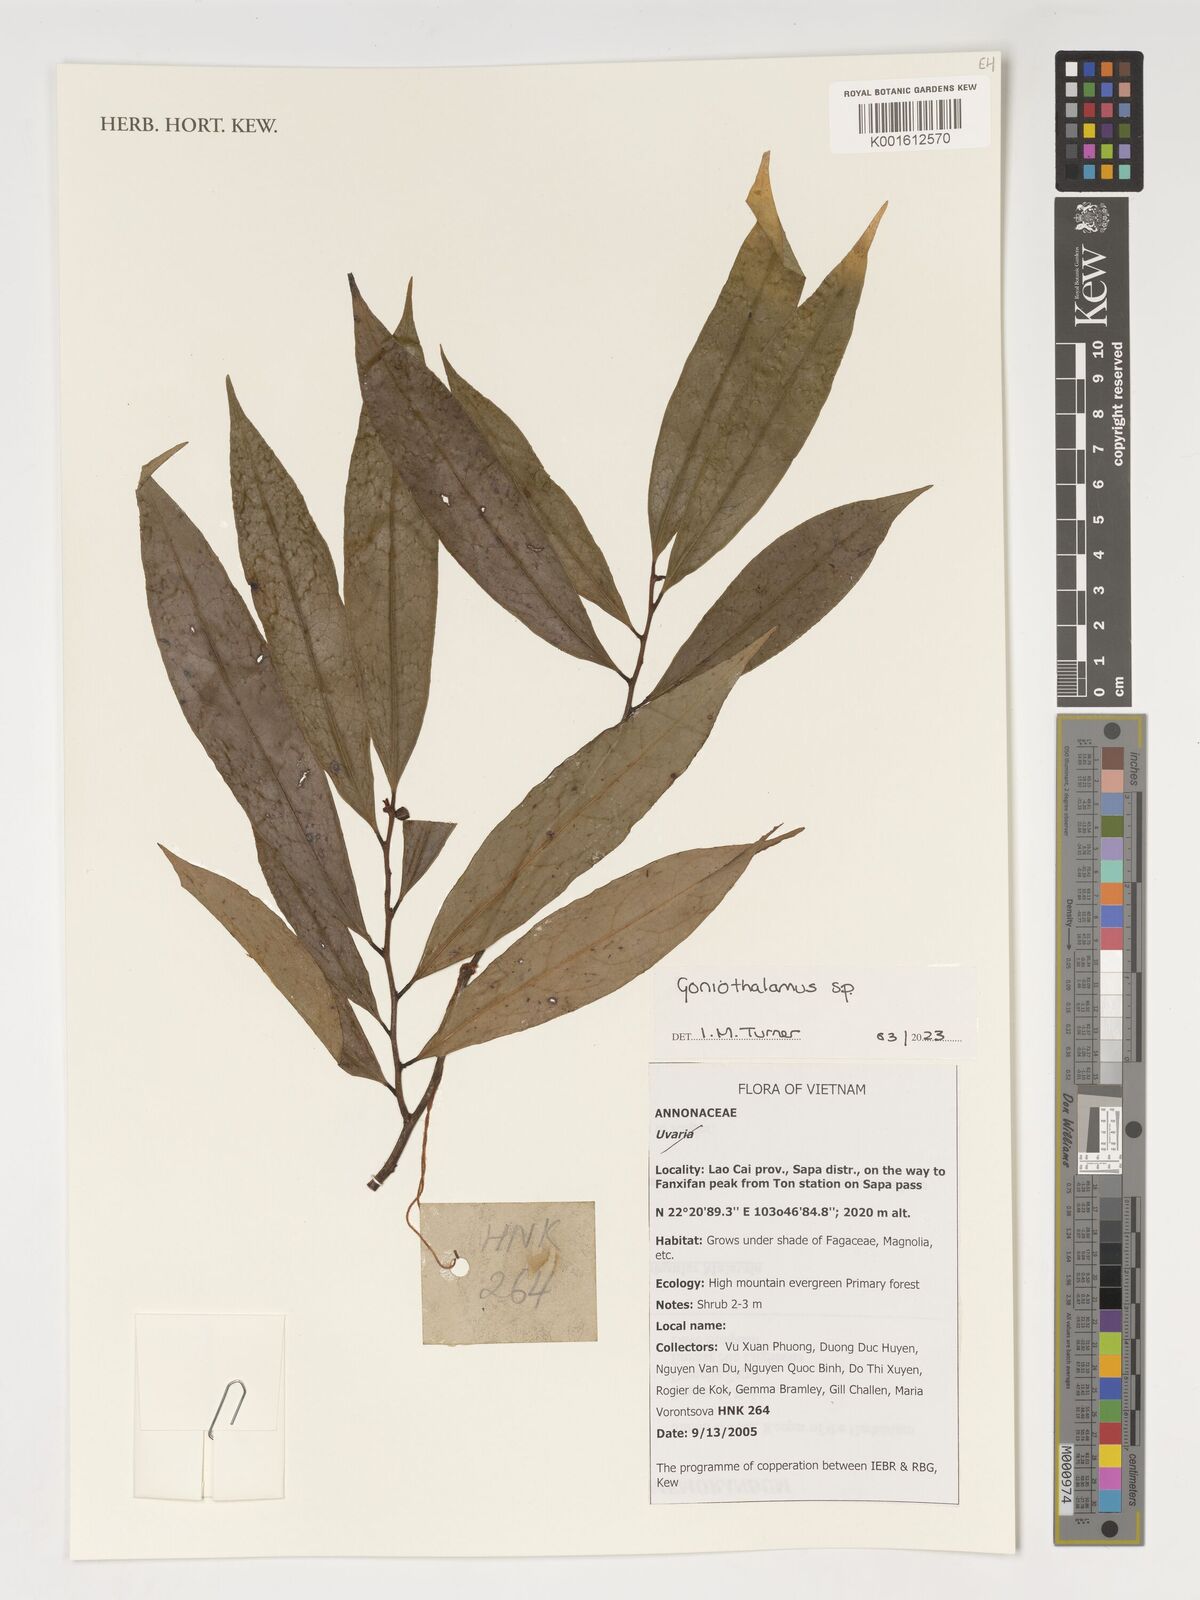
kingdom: Plantae
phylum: Tracheophyta
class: Magnoliopsida
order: Magnoliales
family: Annonaceae
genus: Goniothalamus
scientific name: Goniothalamus
